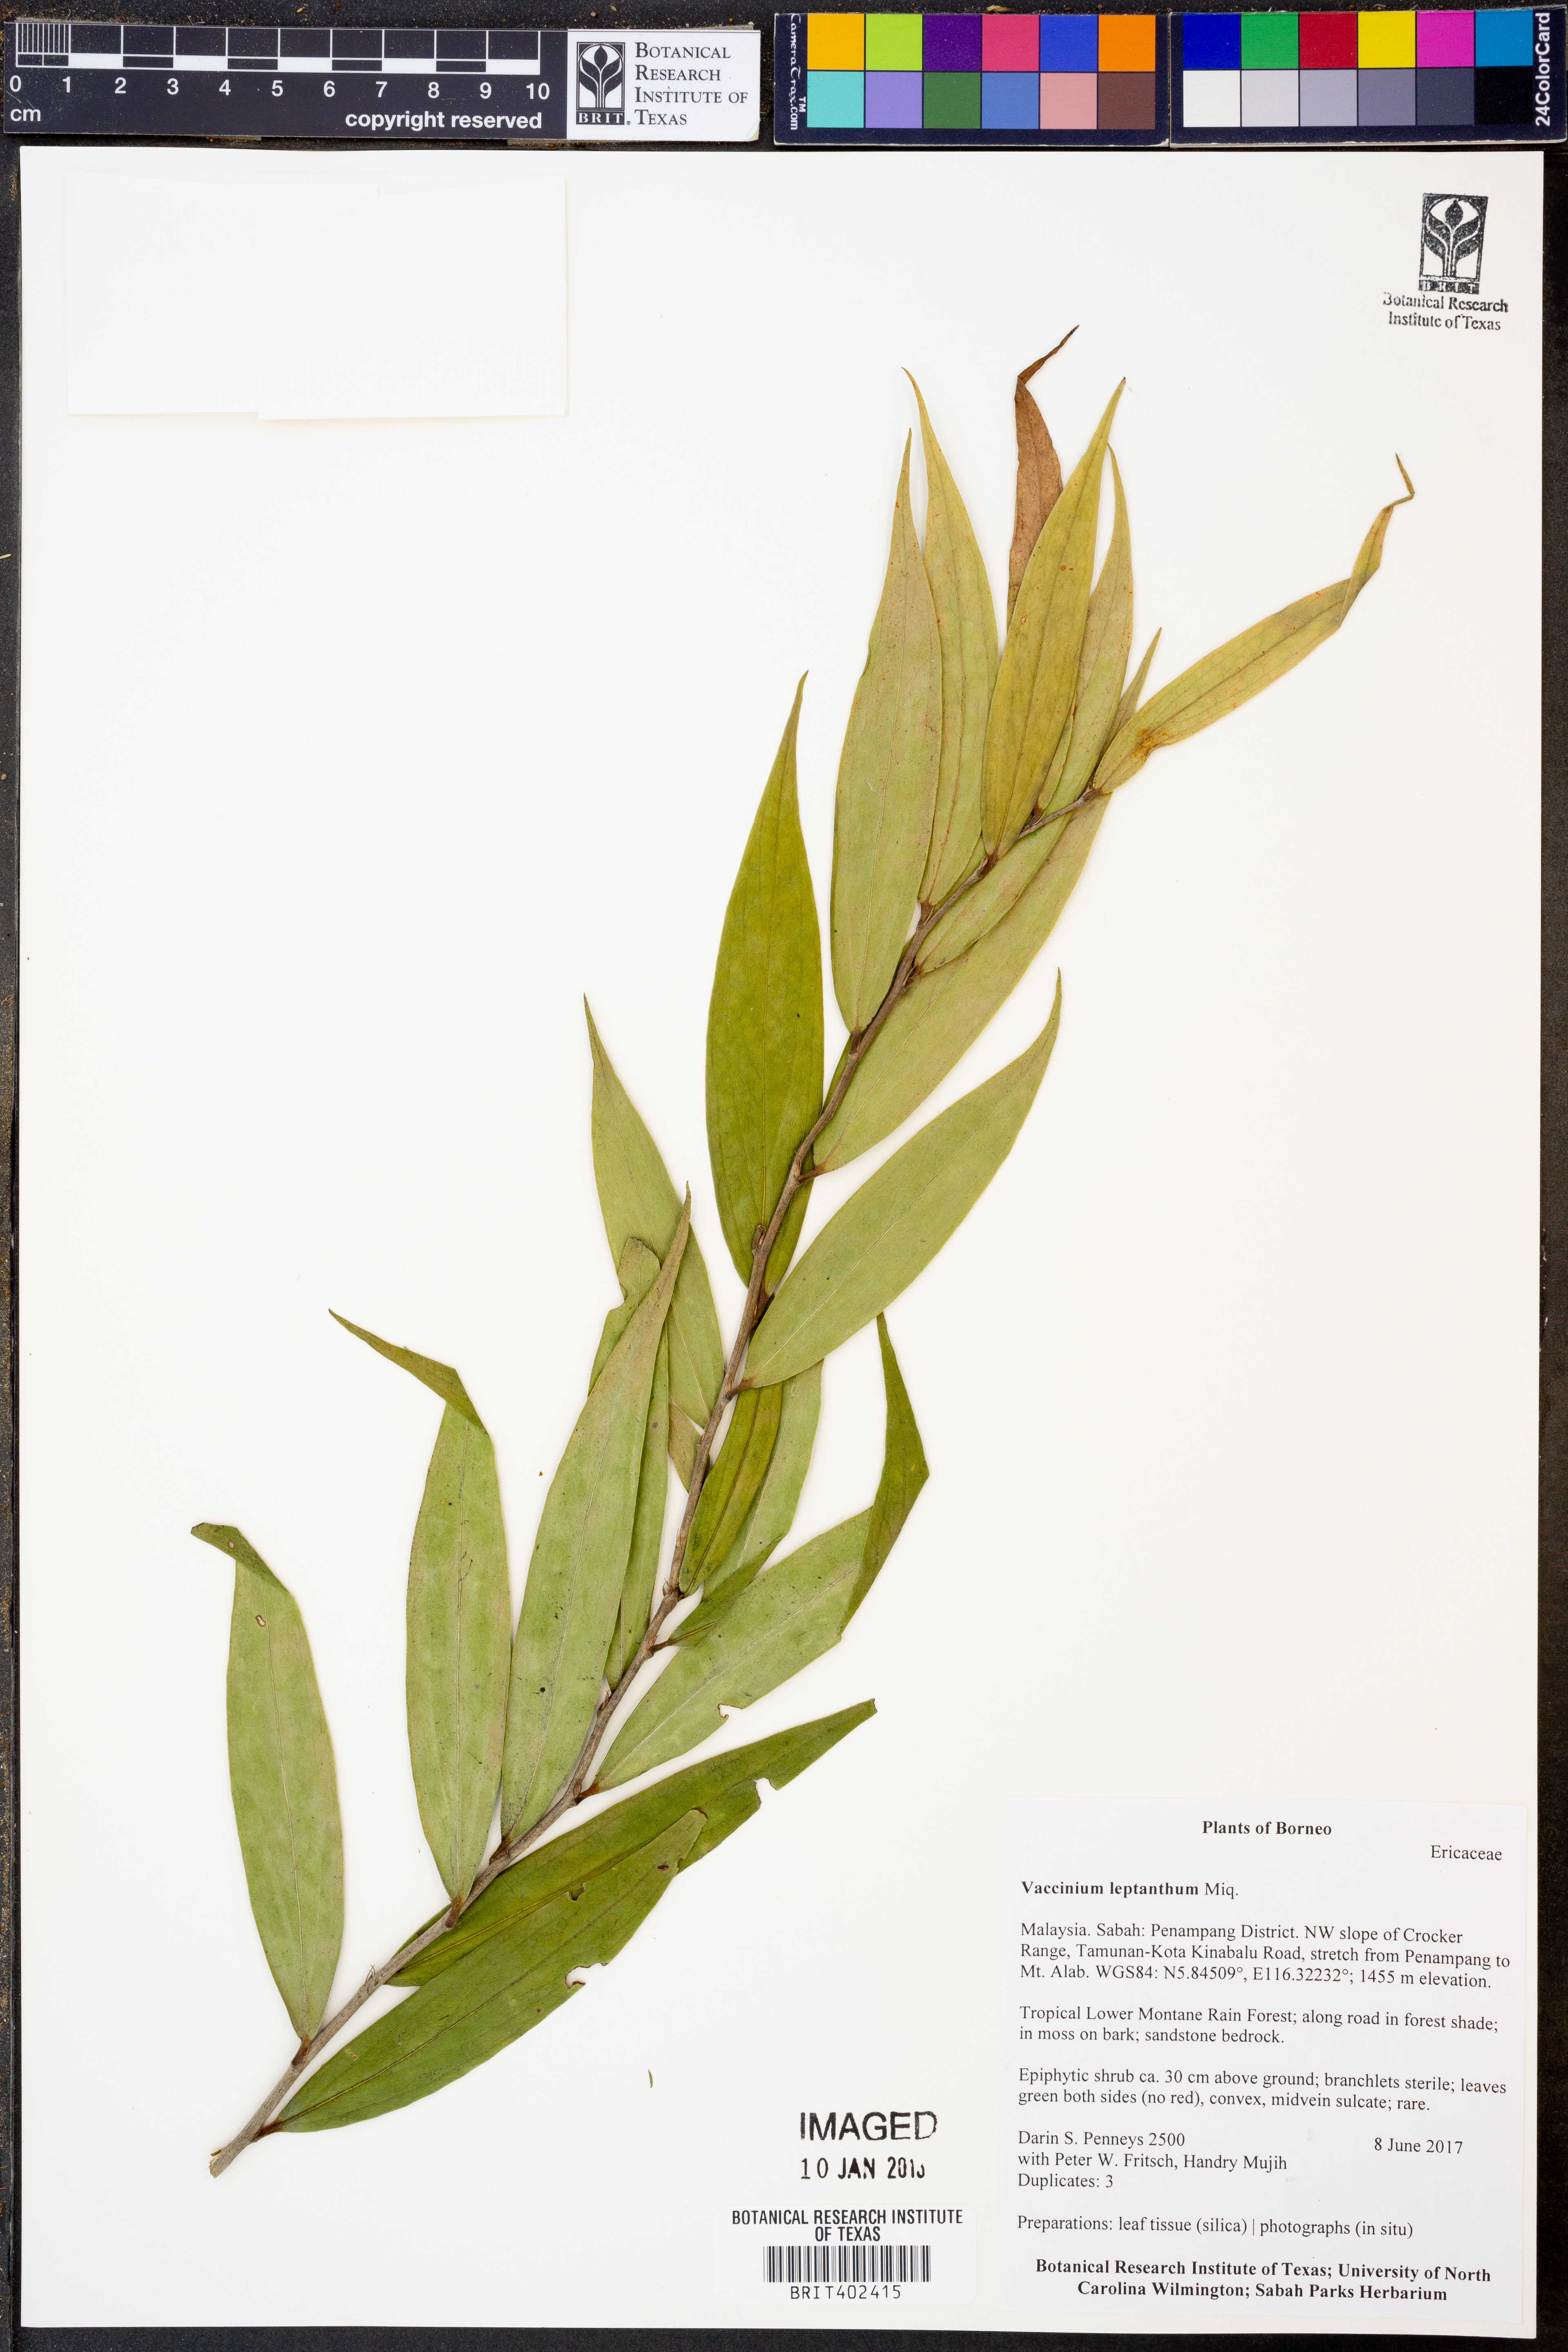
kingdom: Plantae
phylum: Tracheophyta
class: Magnoliopsida
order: Ericales
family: Ericaceae
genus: Rigiolepis
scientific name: Rigiolepis leptantha
